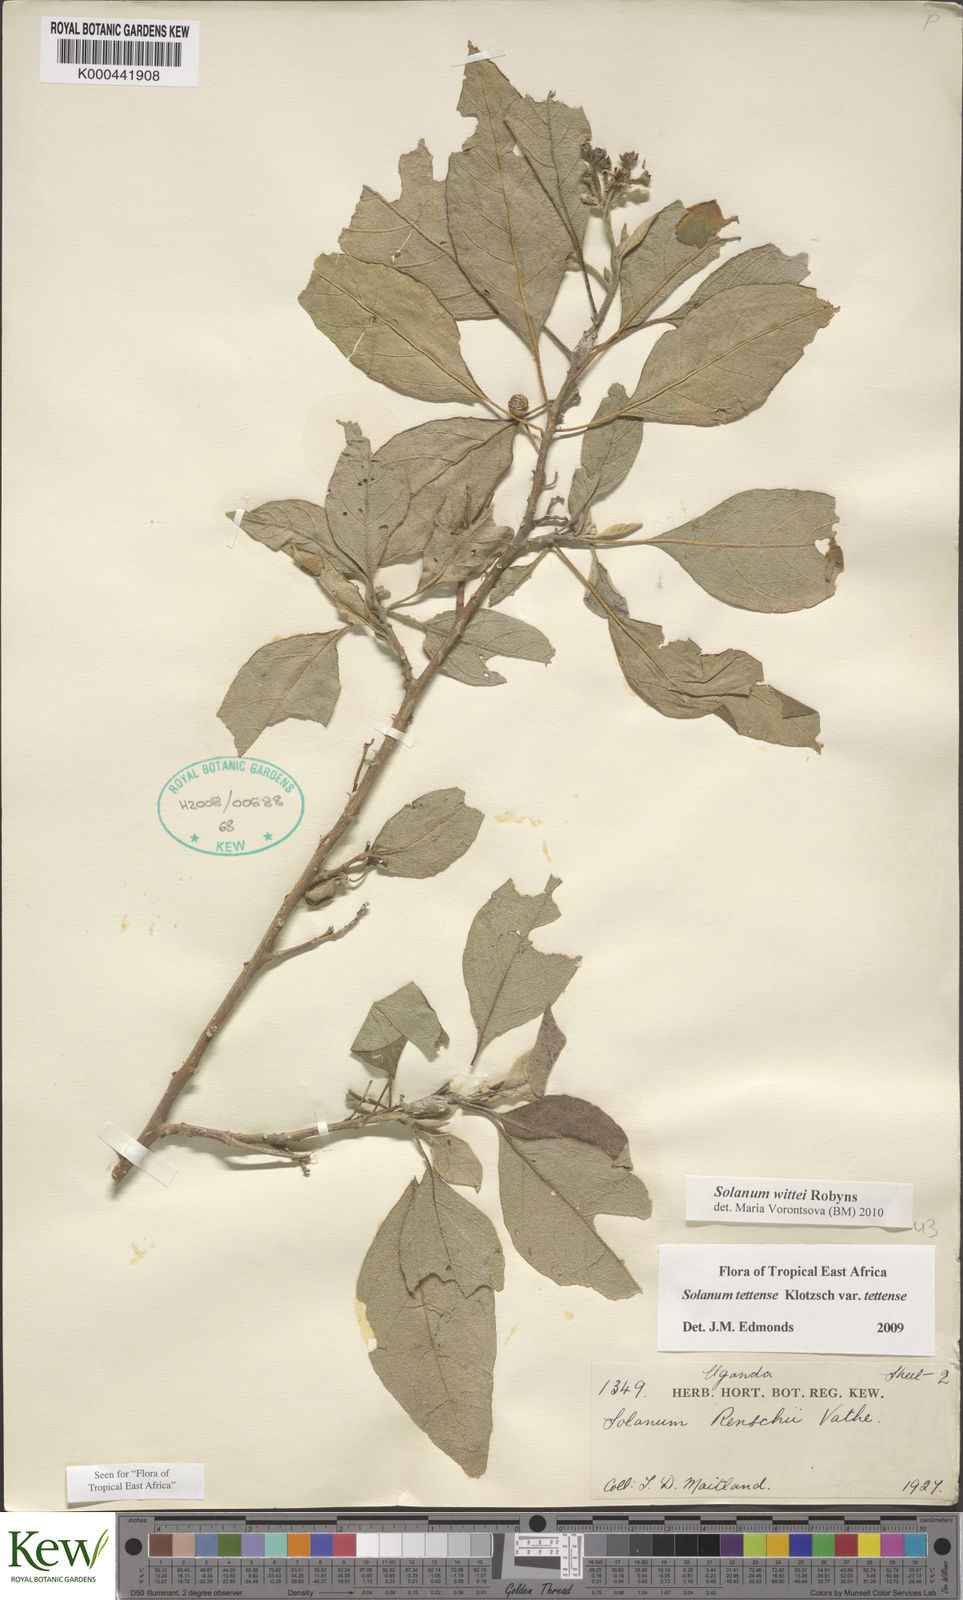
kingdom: Plantae
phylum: Tracheophyta
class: Magnoliopsida
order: Solanales
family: Solanaceae
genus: Solanum
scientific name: Solanum wittei
